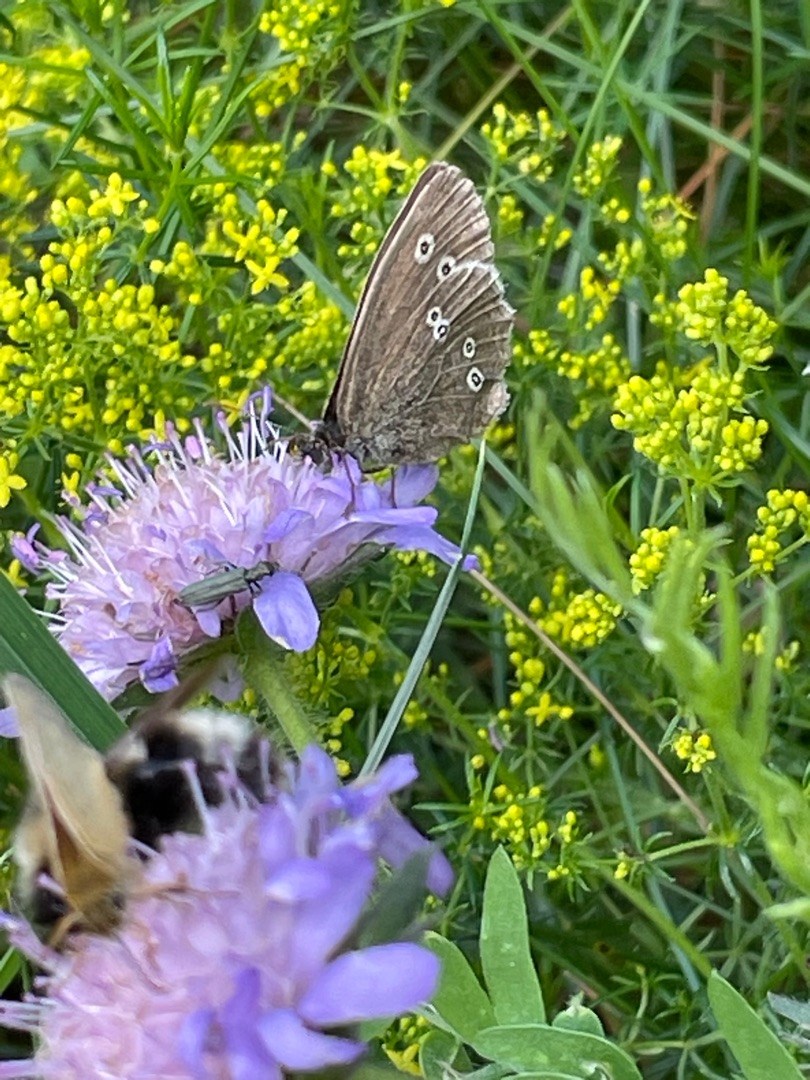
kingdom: Animalia
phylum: Arthropoda
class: Insecta
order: Lepidoptera
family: Nymphalidae
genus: Aphantopus
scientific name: Aphantopus hyperantus
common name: Engrandøje
